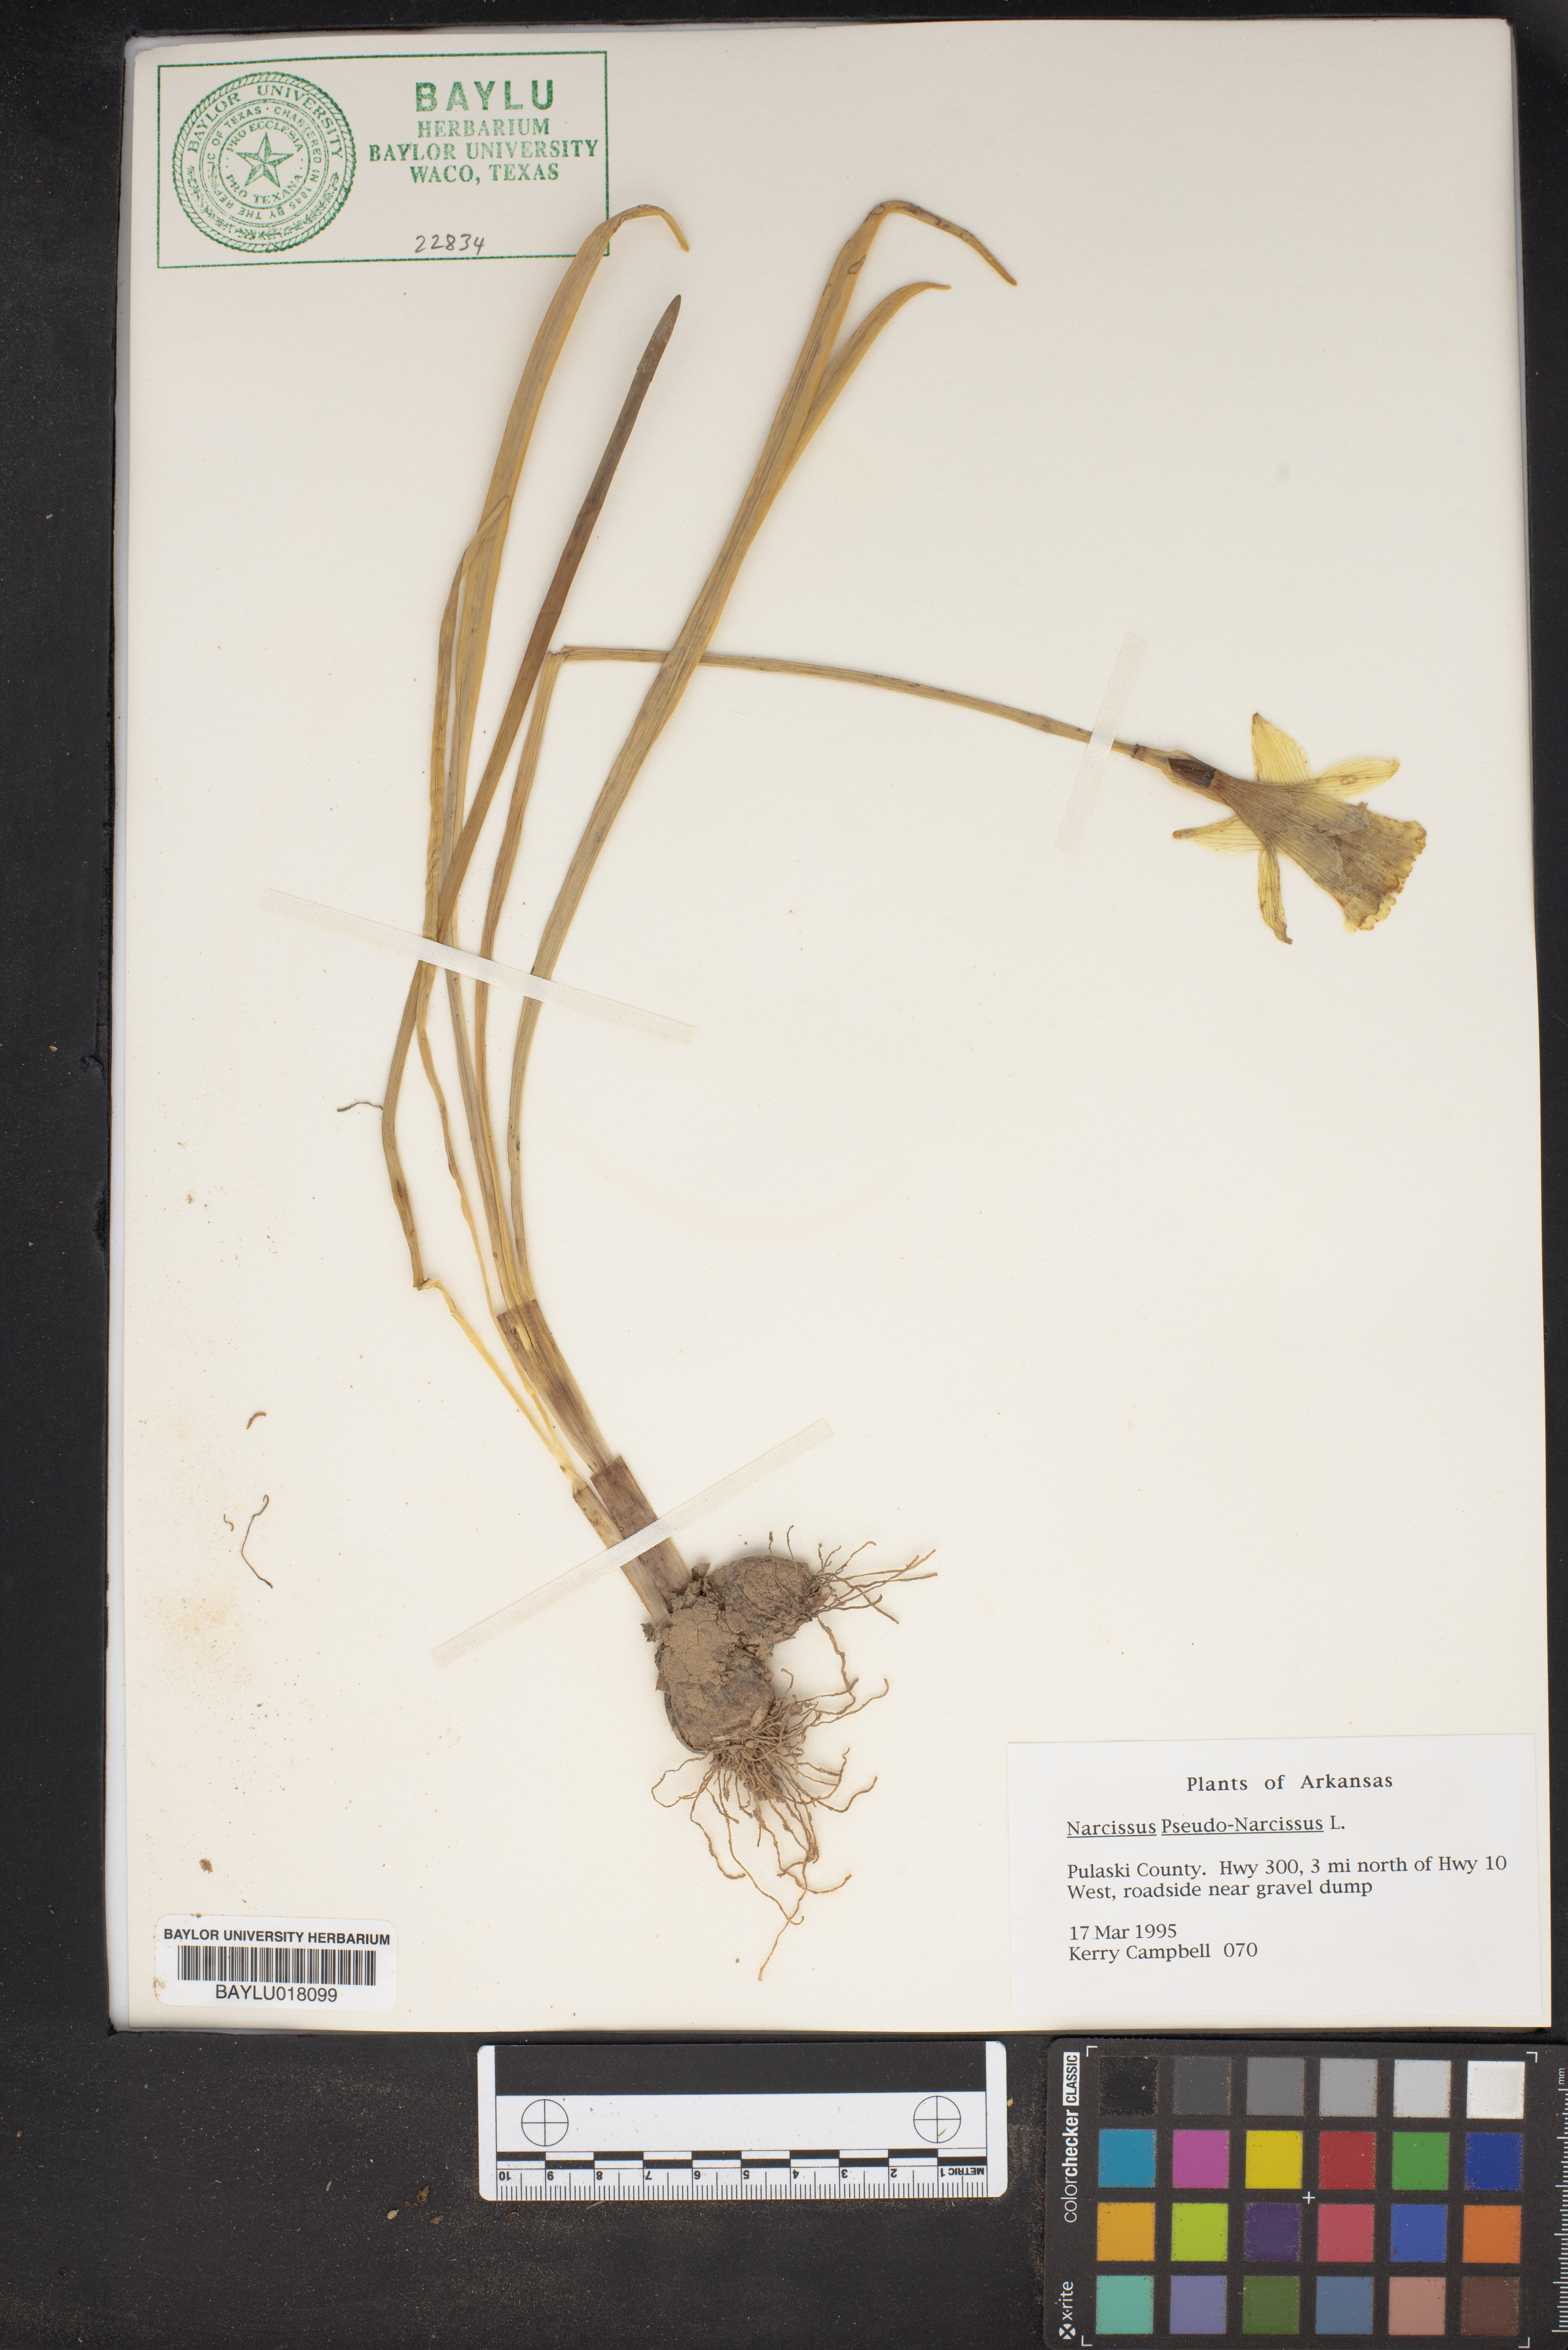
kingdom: Plantae
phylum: Tracheophyta
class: Liliopsida
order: Asparagales
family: Amaryllidaceae
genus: Narcissus
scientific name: Narcissus pseudonarcissus
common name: Daffodil
